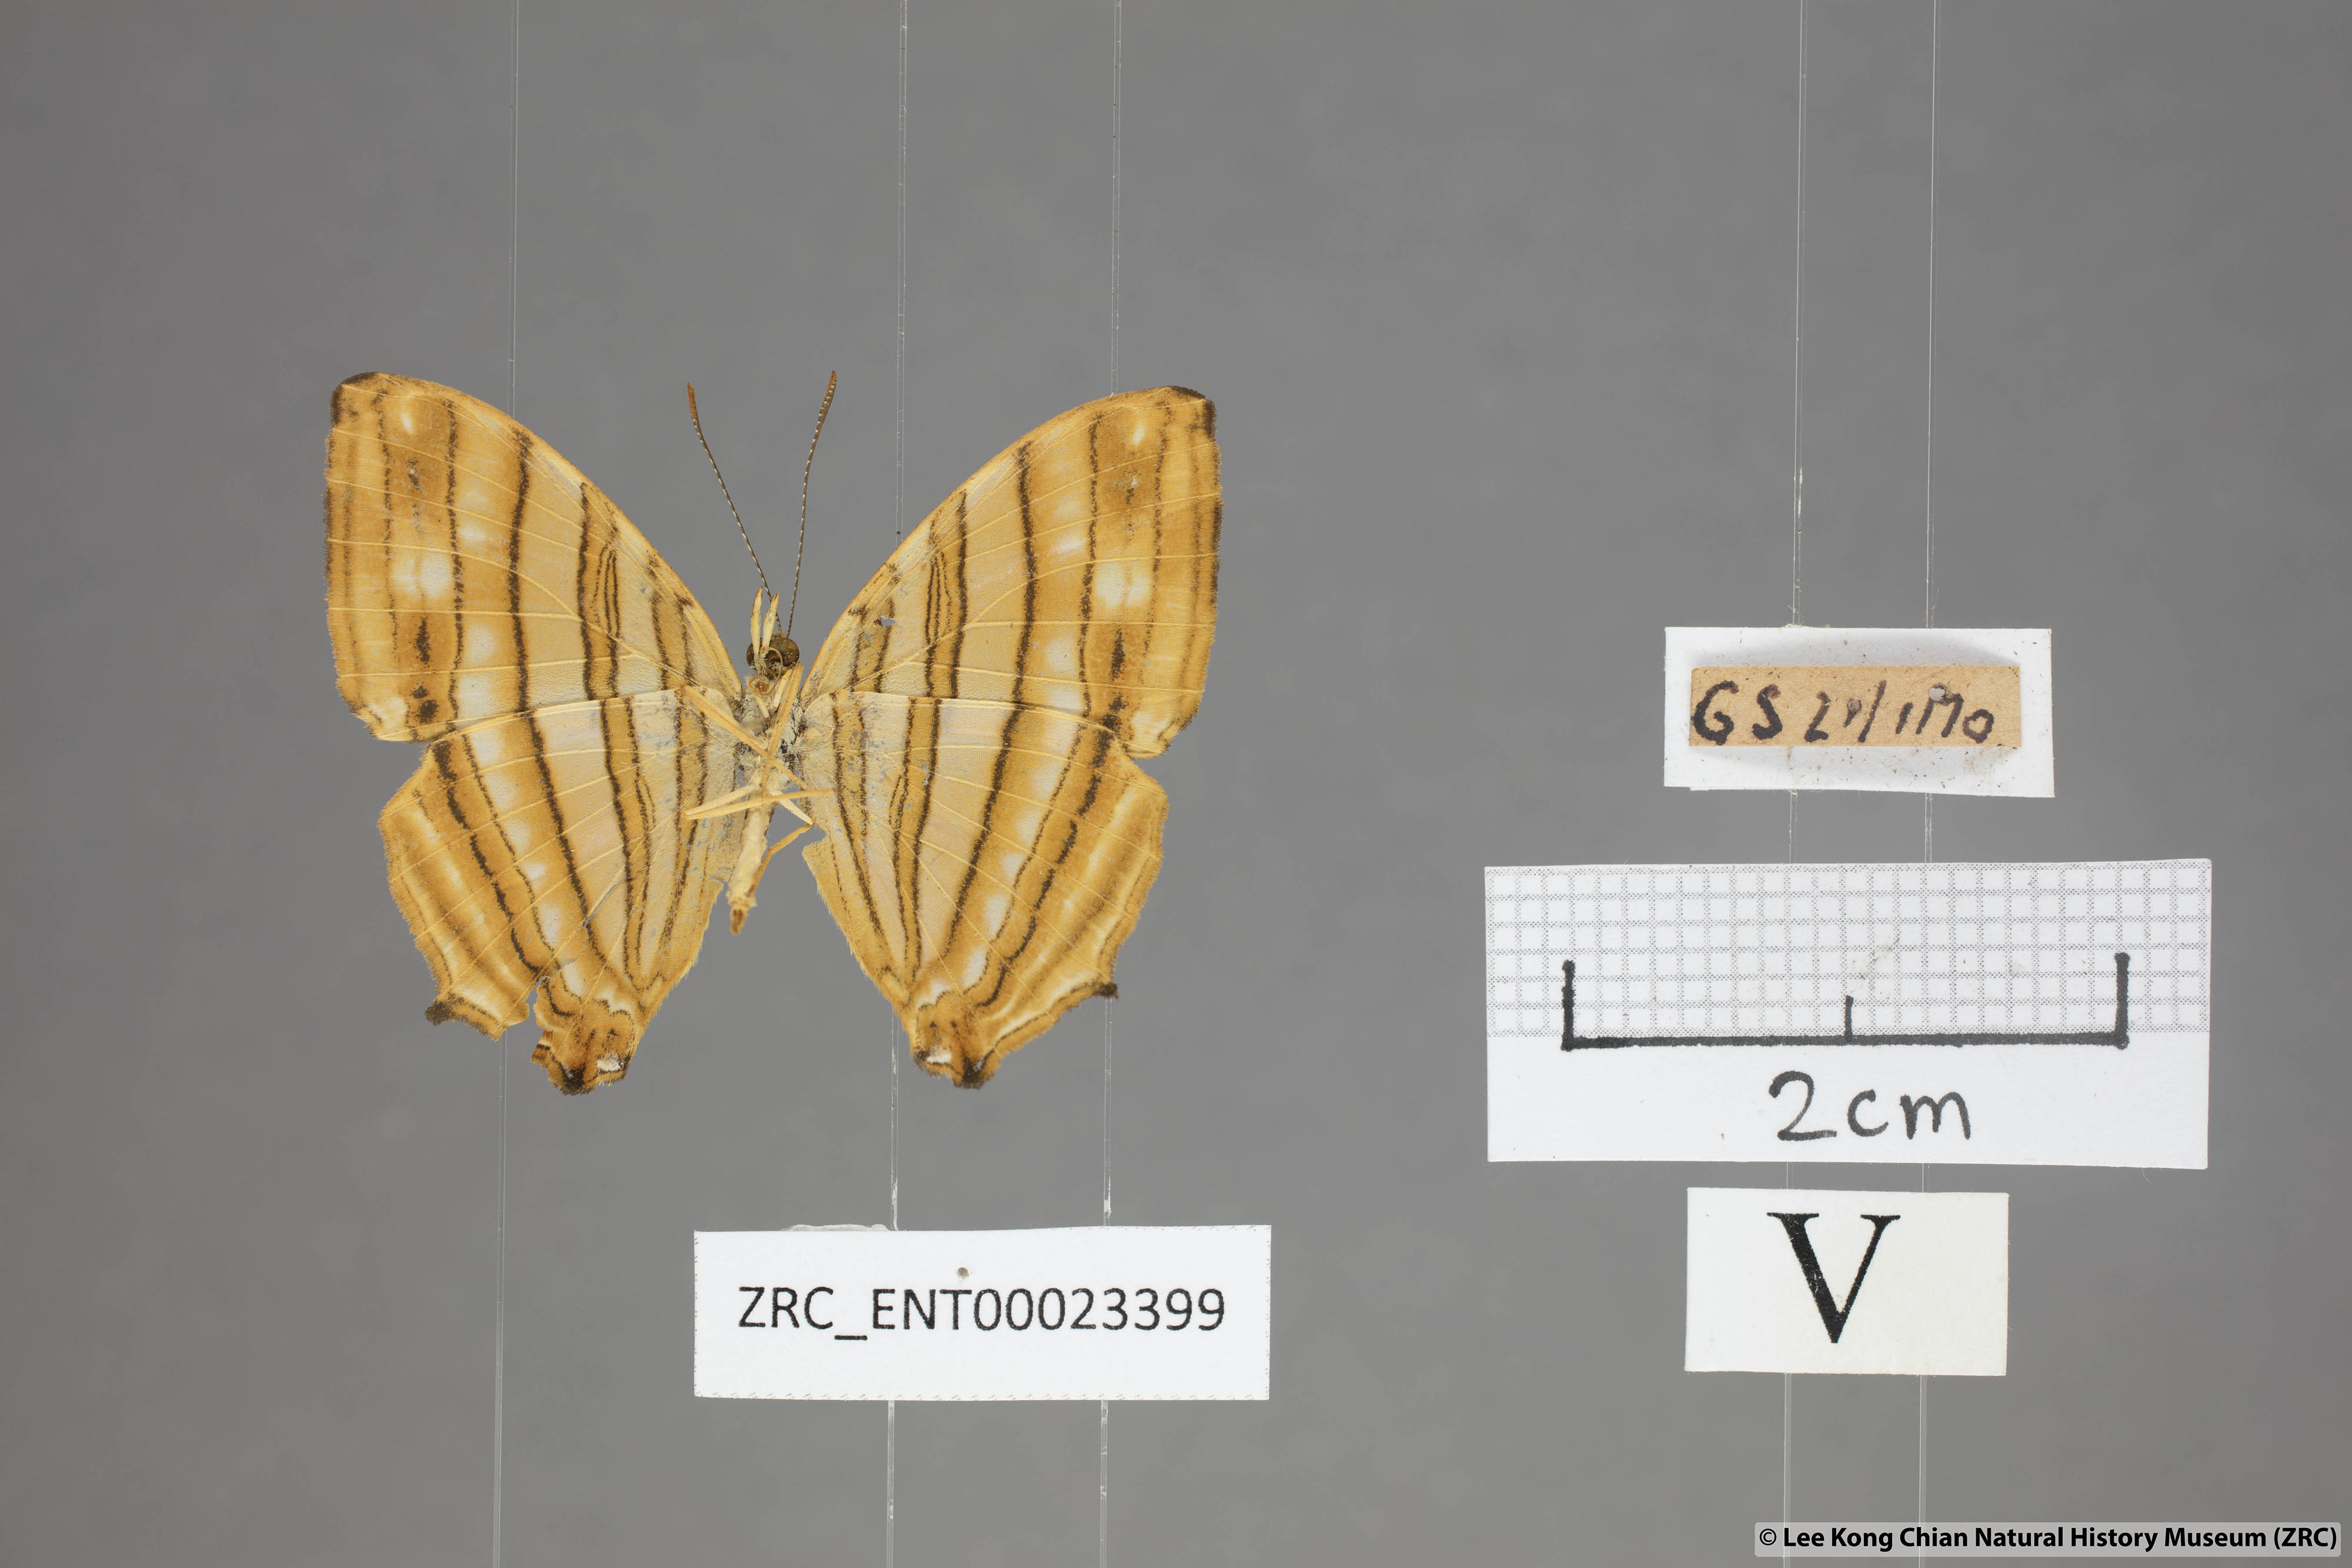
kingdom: Animalia
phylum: Arthropoda
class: Insecta
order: Lepidoptera
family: Nymphalidae
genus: Chersonesia
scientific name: Chersonesia risa
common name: Common maplet
